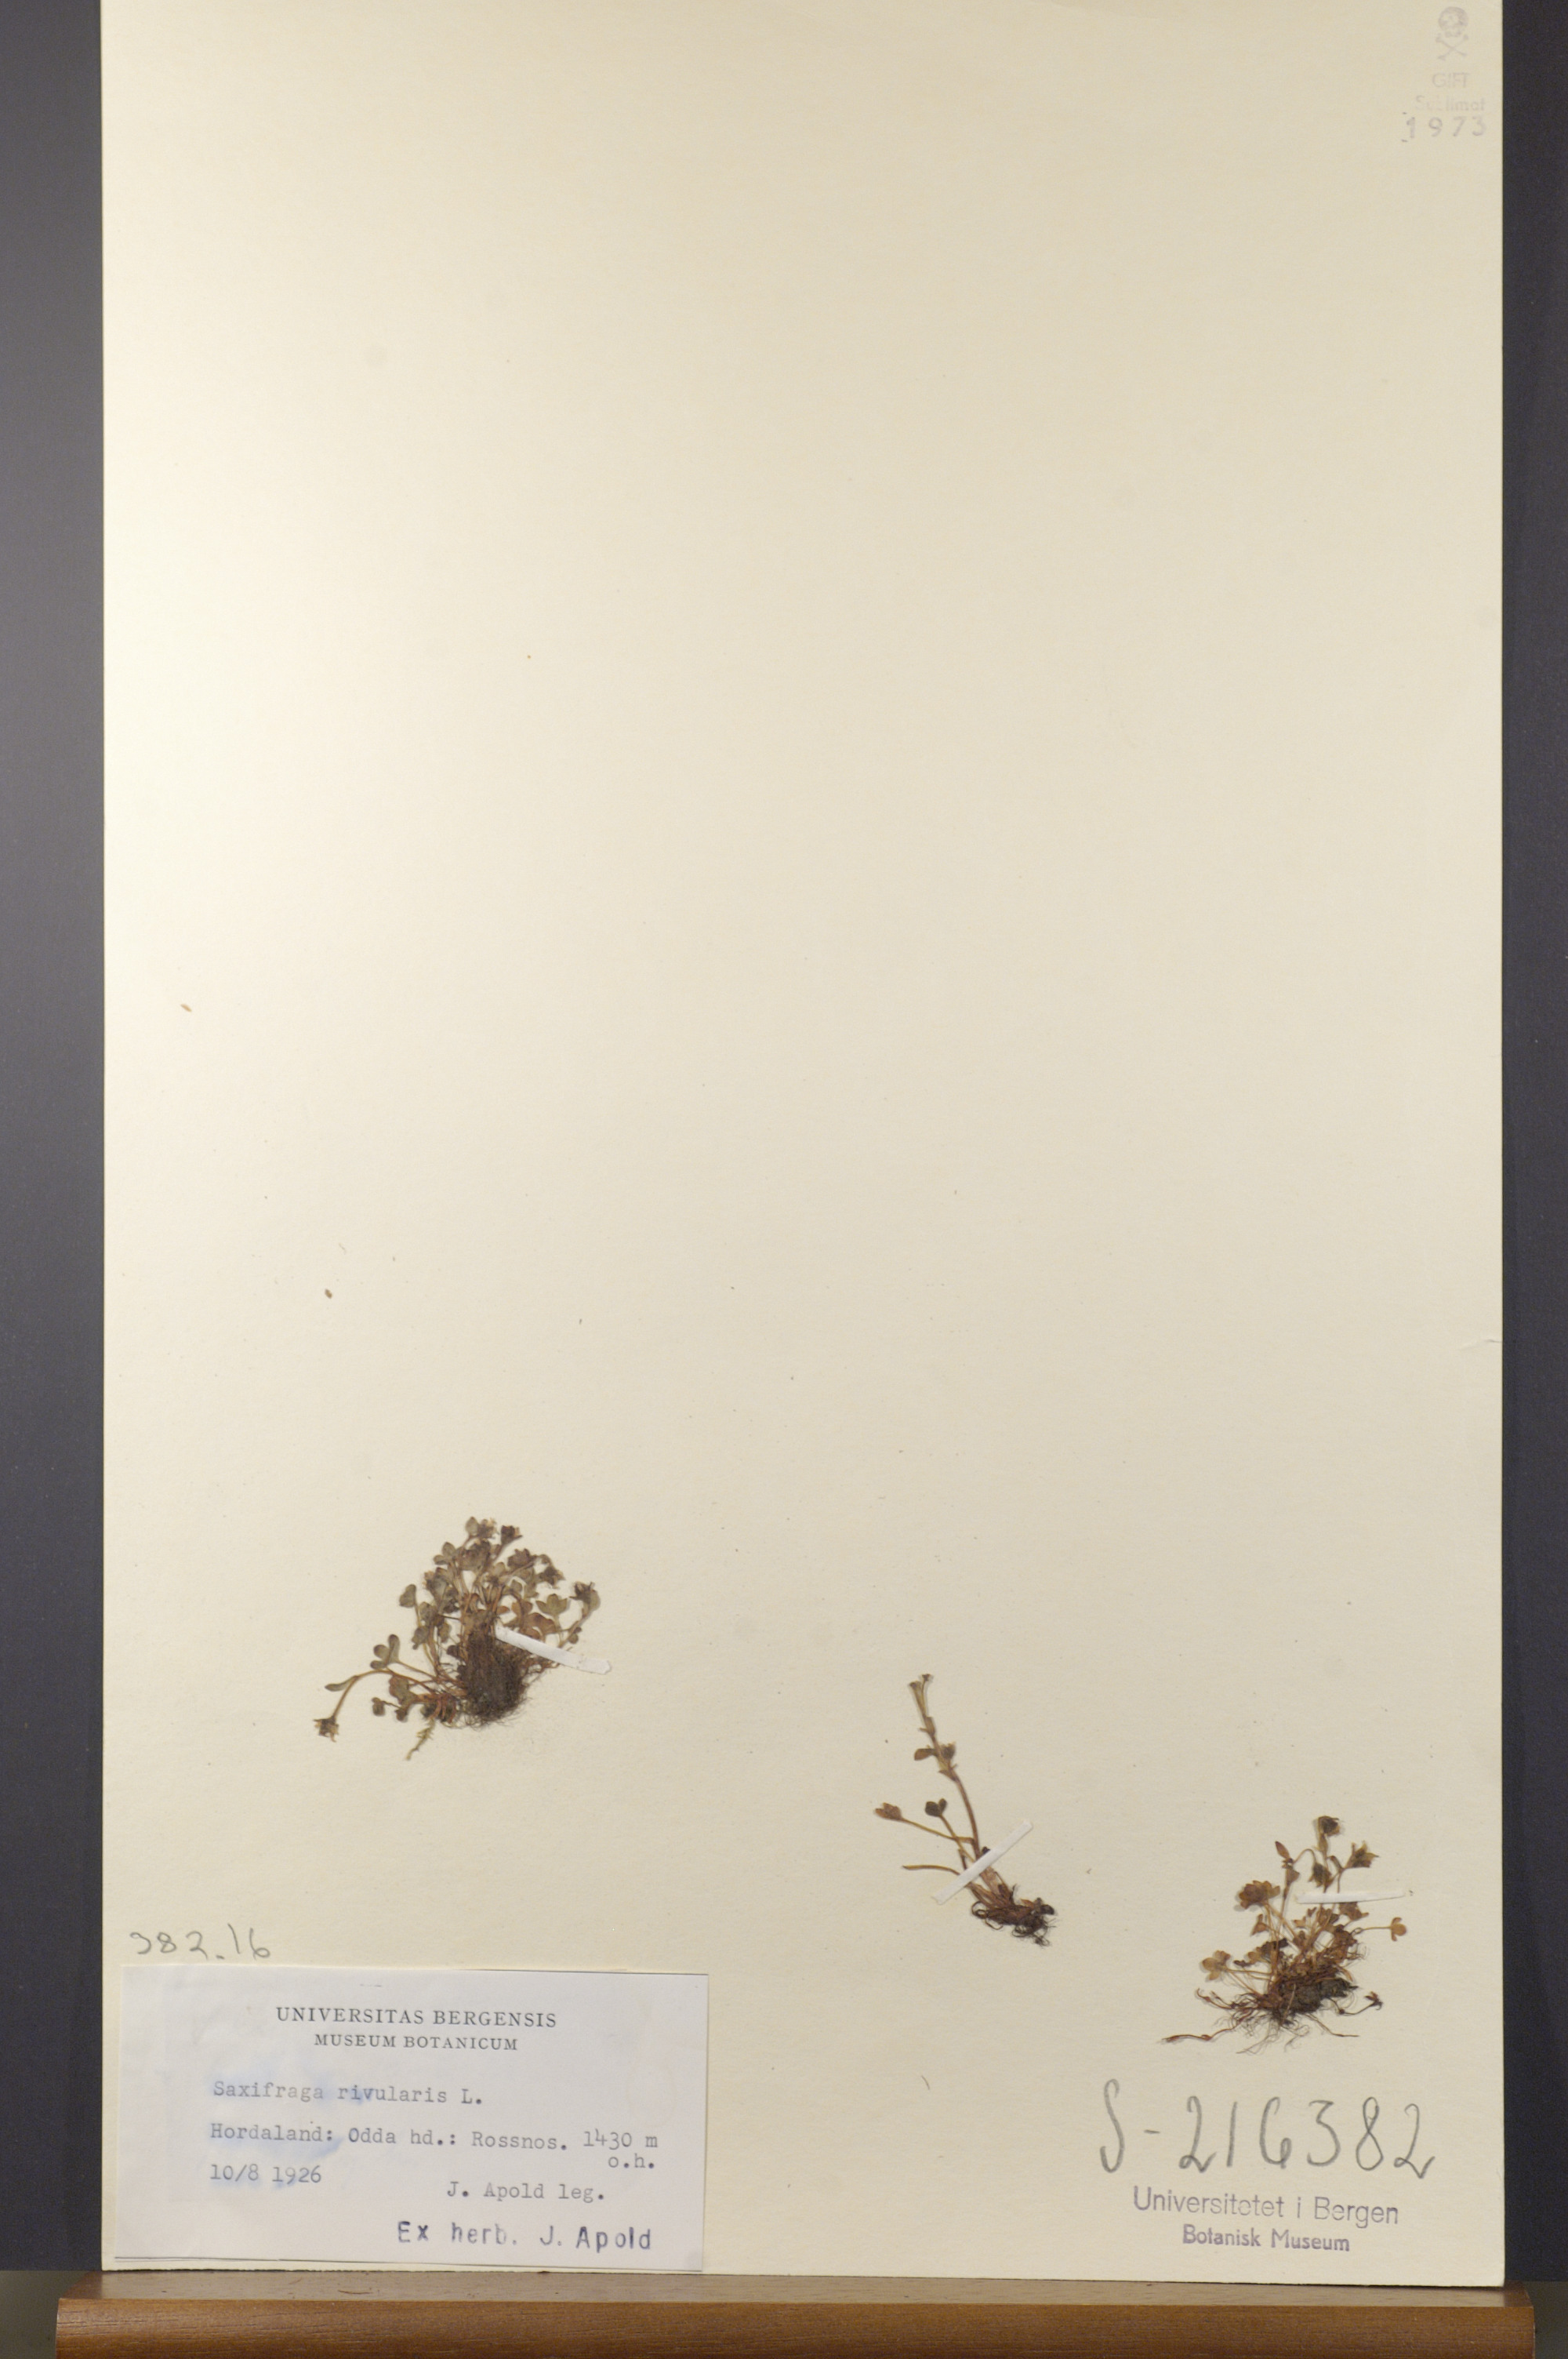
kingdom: Plantae
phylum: Tracheophyta
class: Magnoliopsida
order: Saxifragales
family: Saxifragaceae
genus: Saxifraga
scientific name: Saxifraga rivularis
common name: Highland saxifrage
